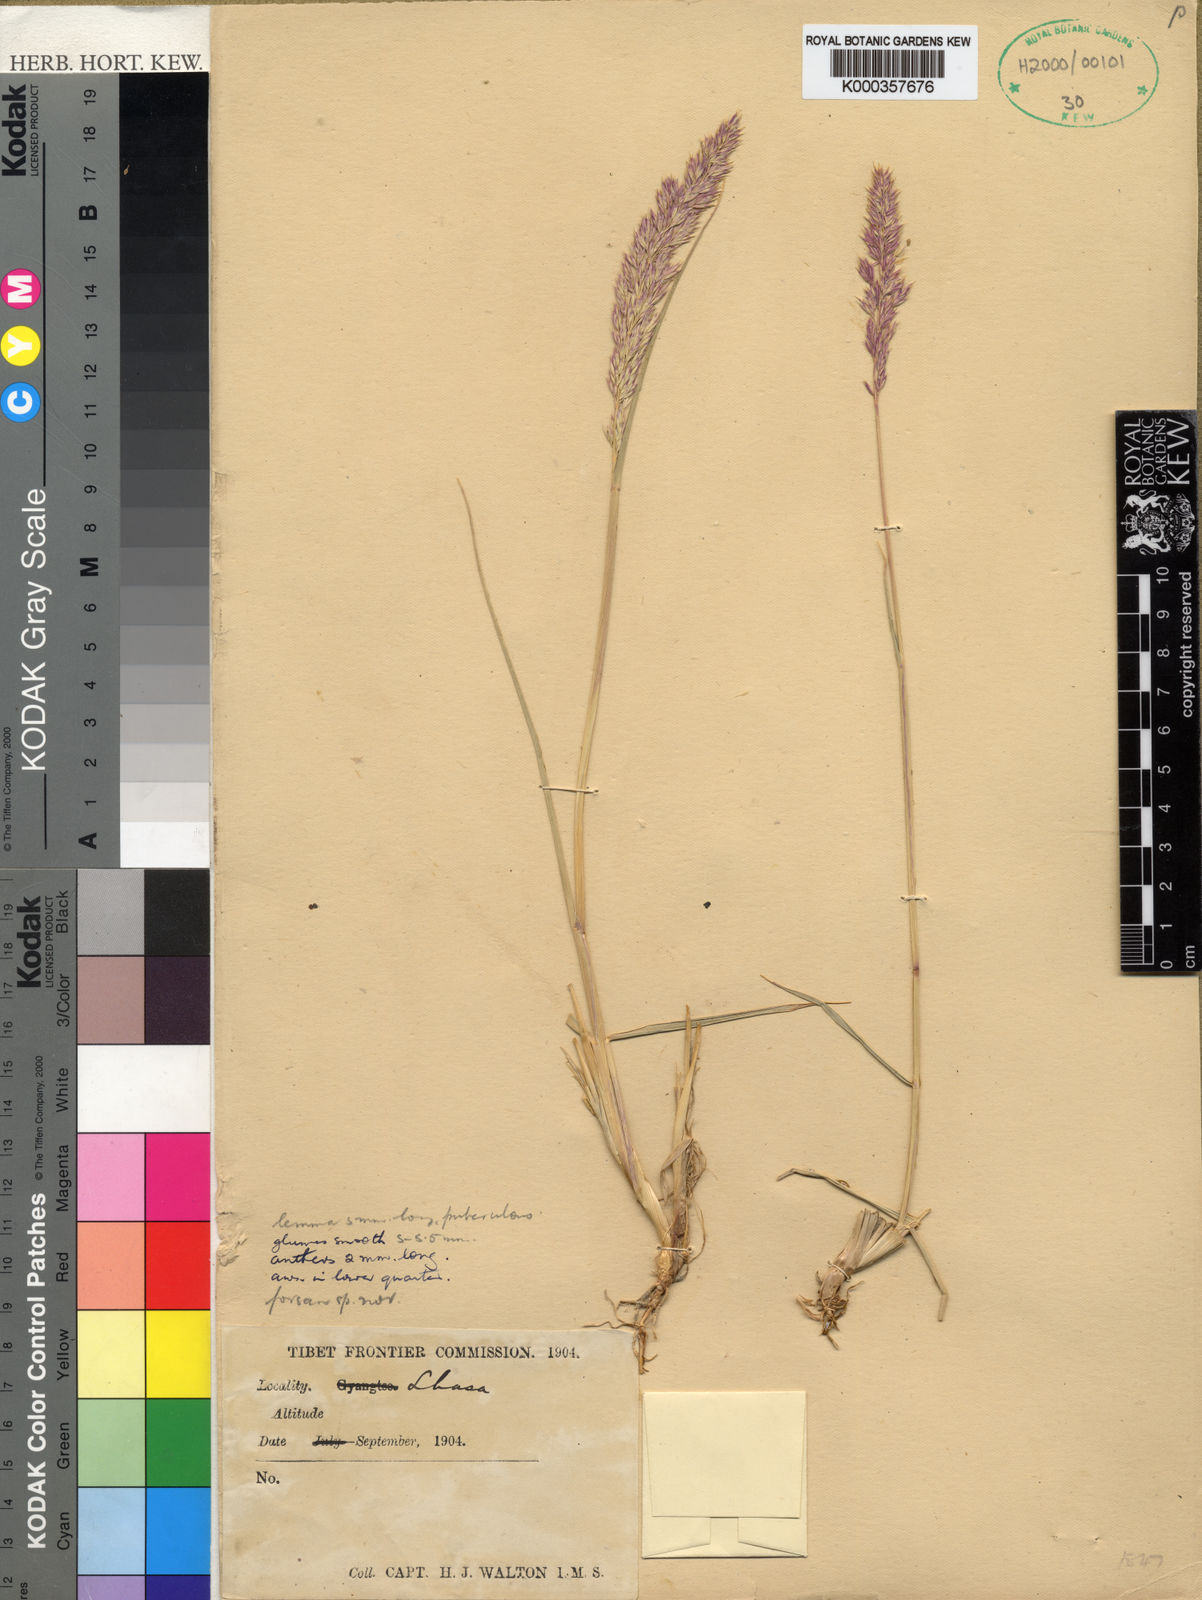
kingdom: Plantae
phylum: Tracheophyta
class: Liliopsida
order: Poales
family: Poaceae
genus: Calamagrostis
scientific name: Calamagrostis borii
